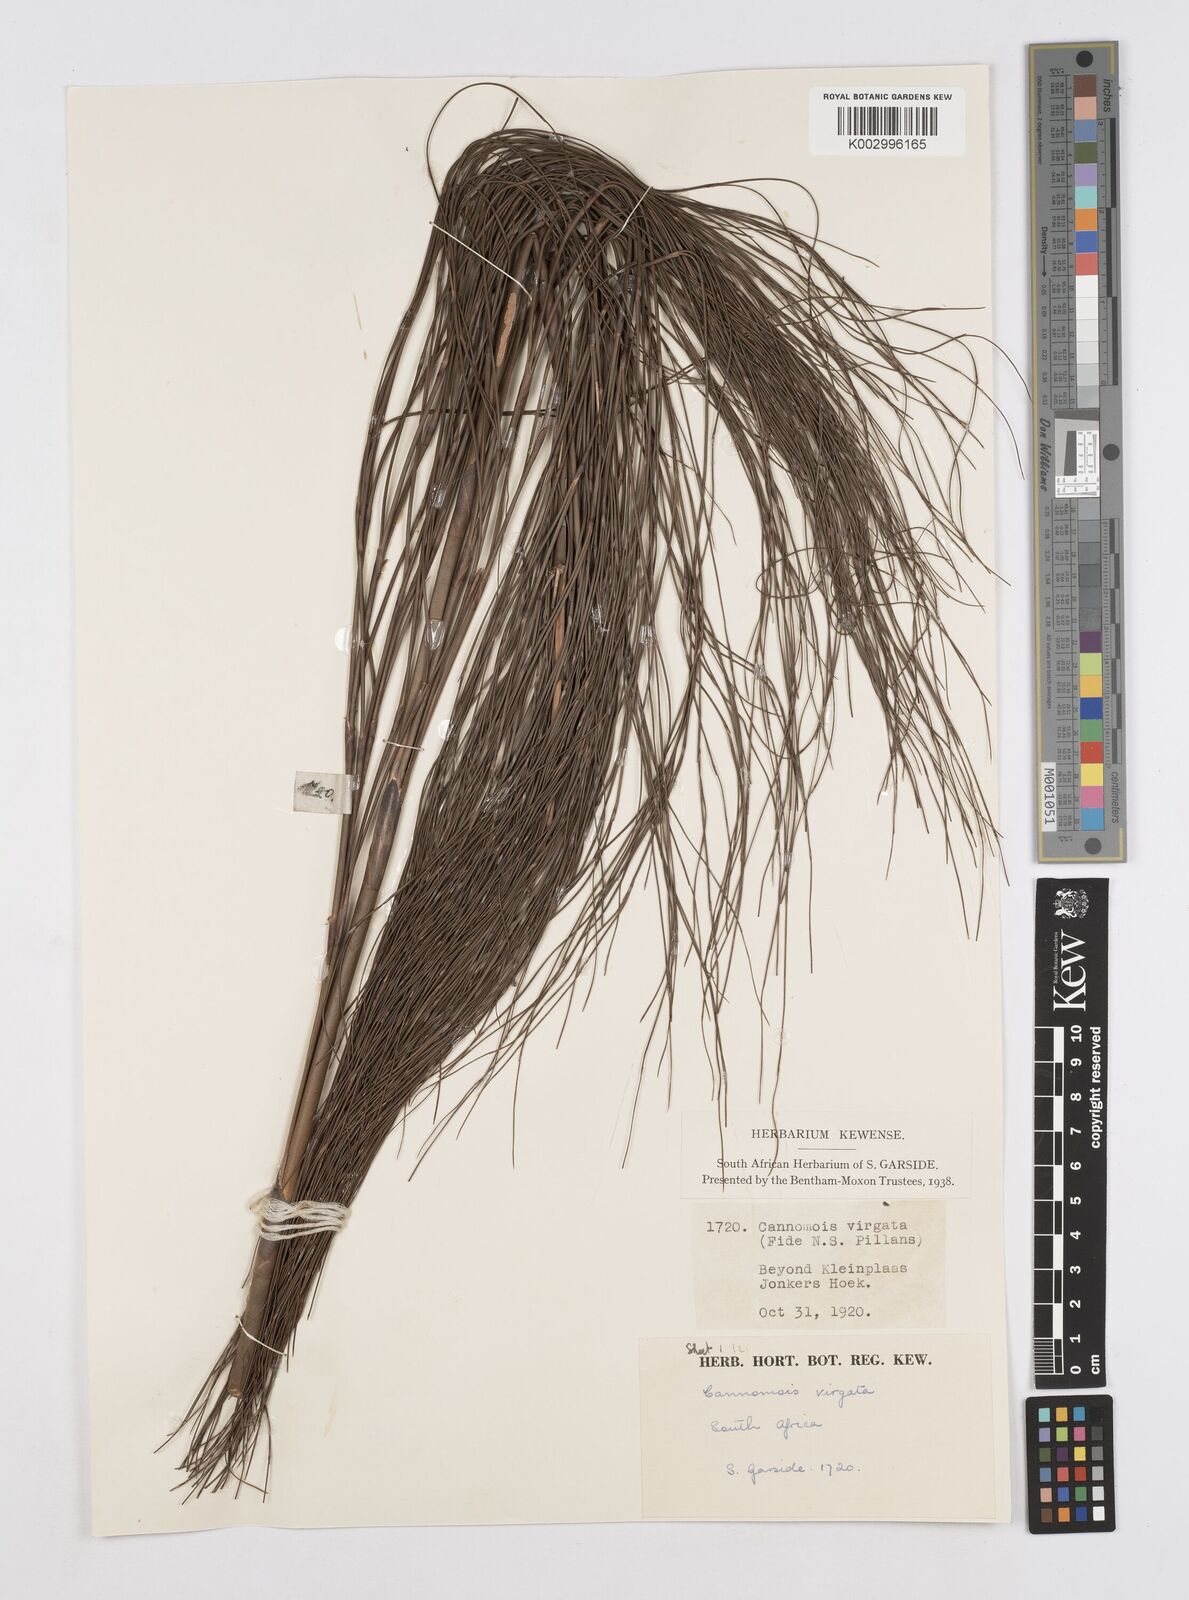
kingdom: Plantae
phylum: Tracheophyta
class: Liliopsida
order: Poales
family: Restionaceae
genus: Cannomois
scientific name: Cannomois virgata
